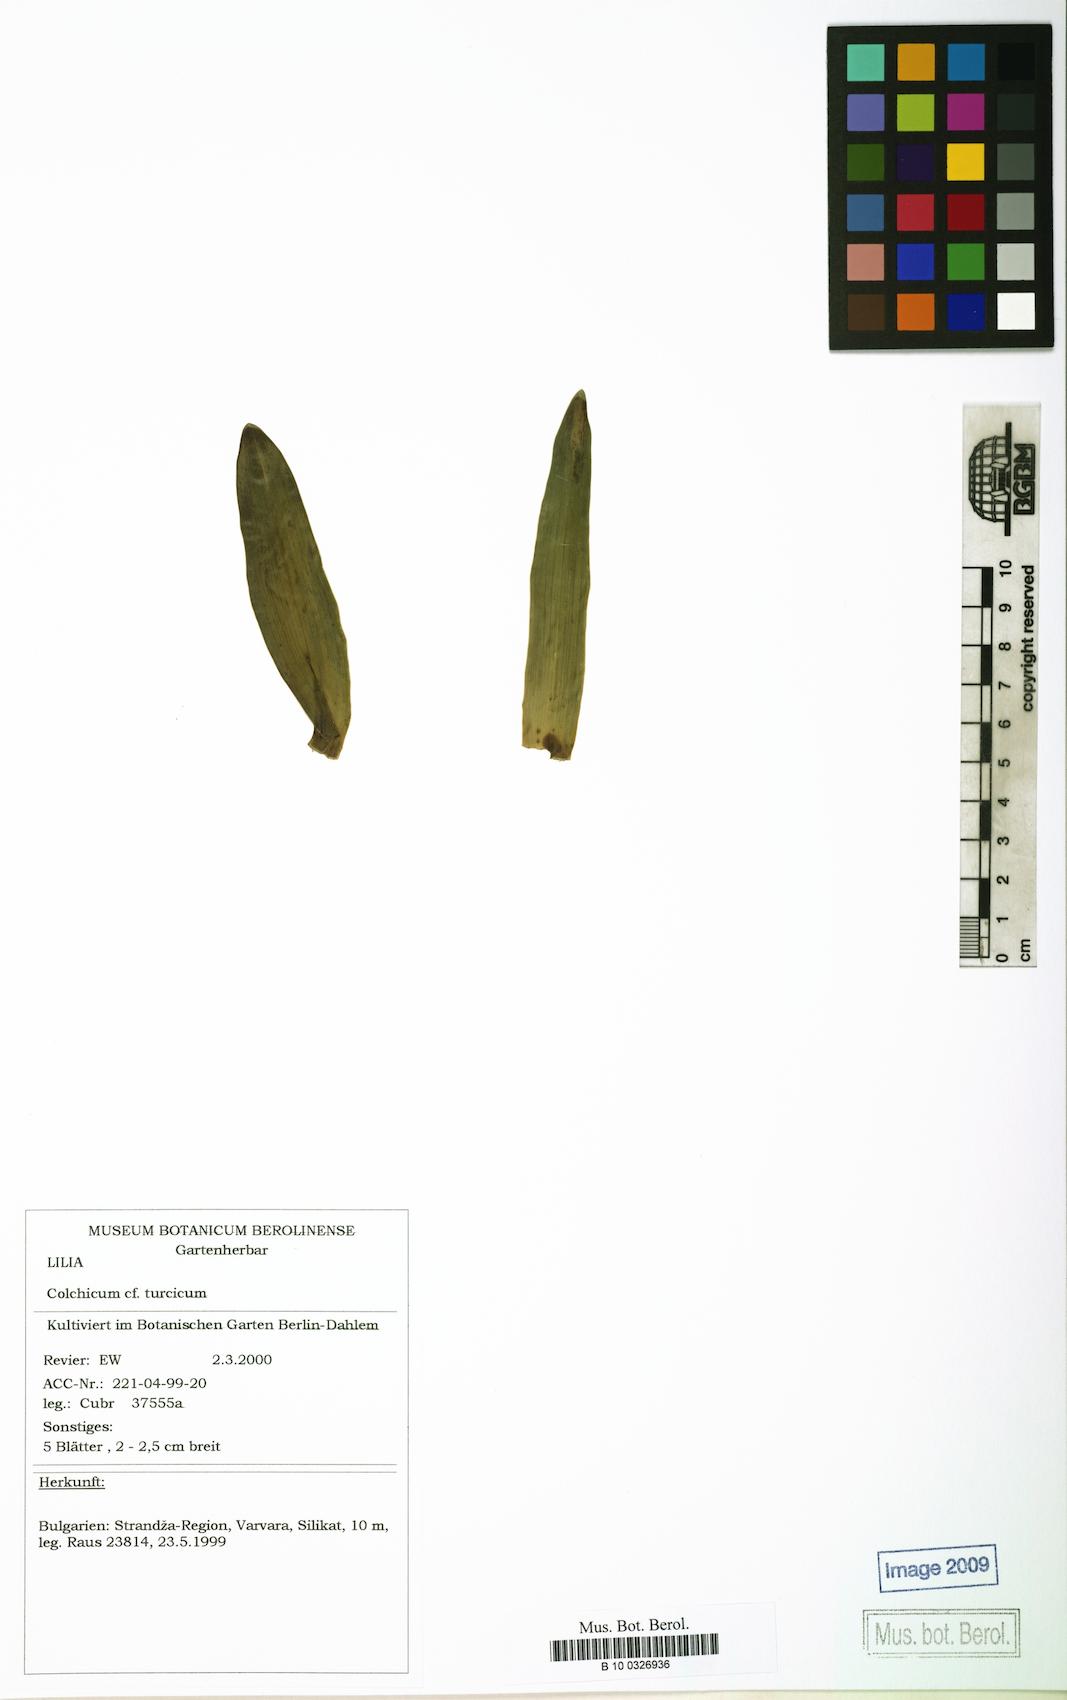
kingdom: Plantae
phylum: Tracheophyta
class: Liliopsida
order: Liliales
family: Colchicaceae
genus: Colchicum
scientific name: Colchicum turcicum
